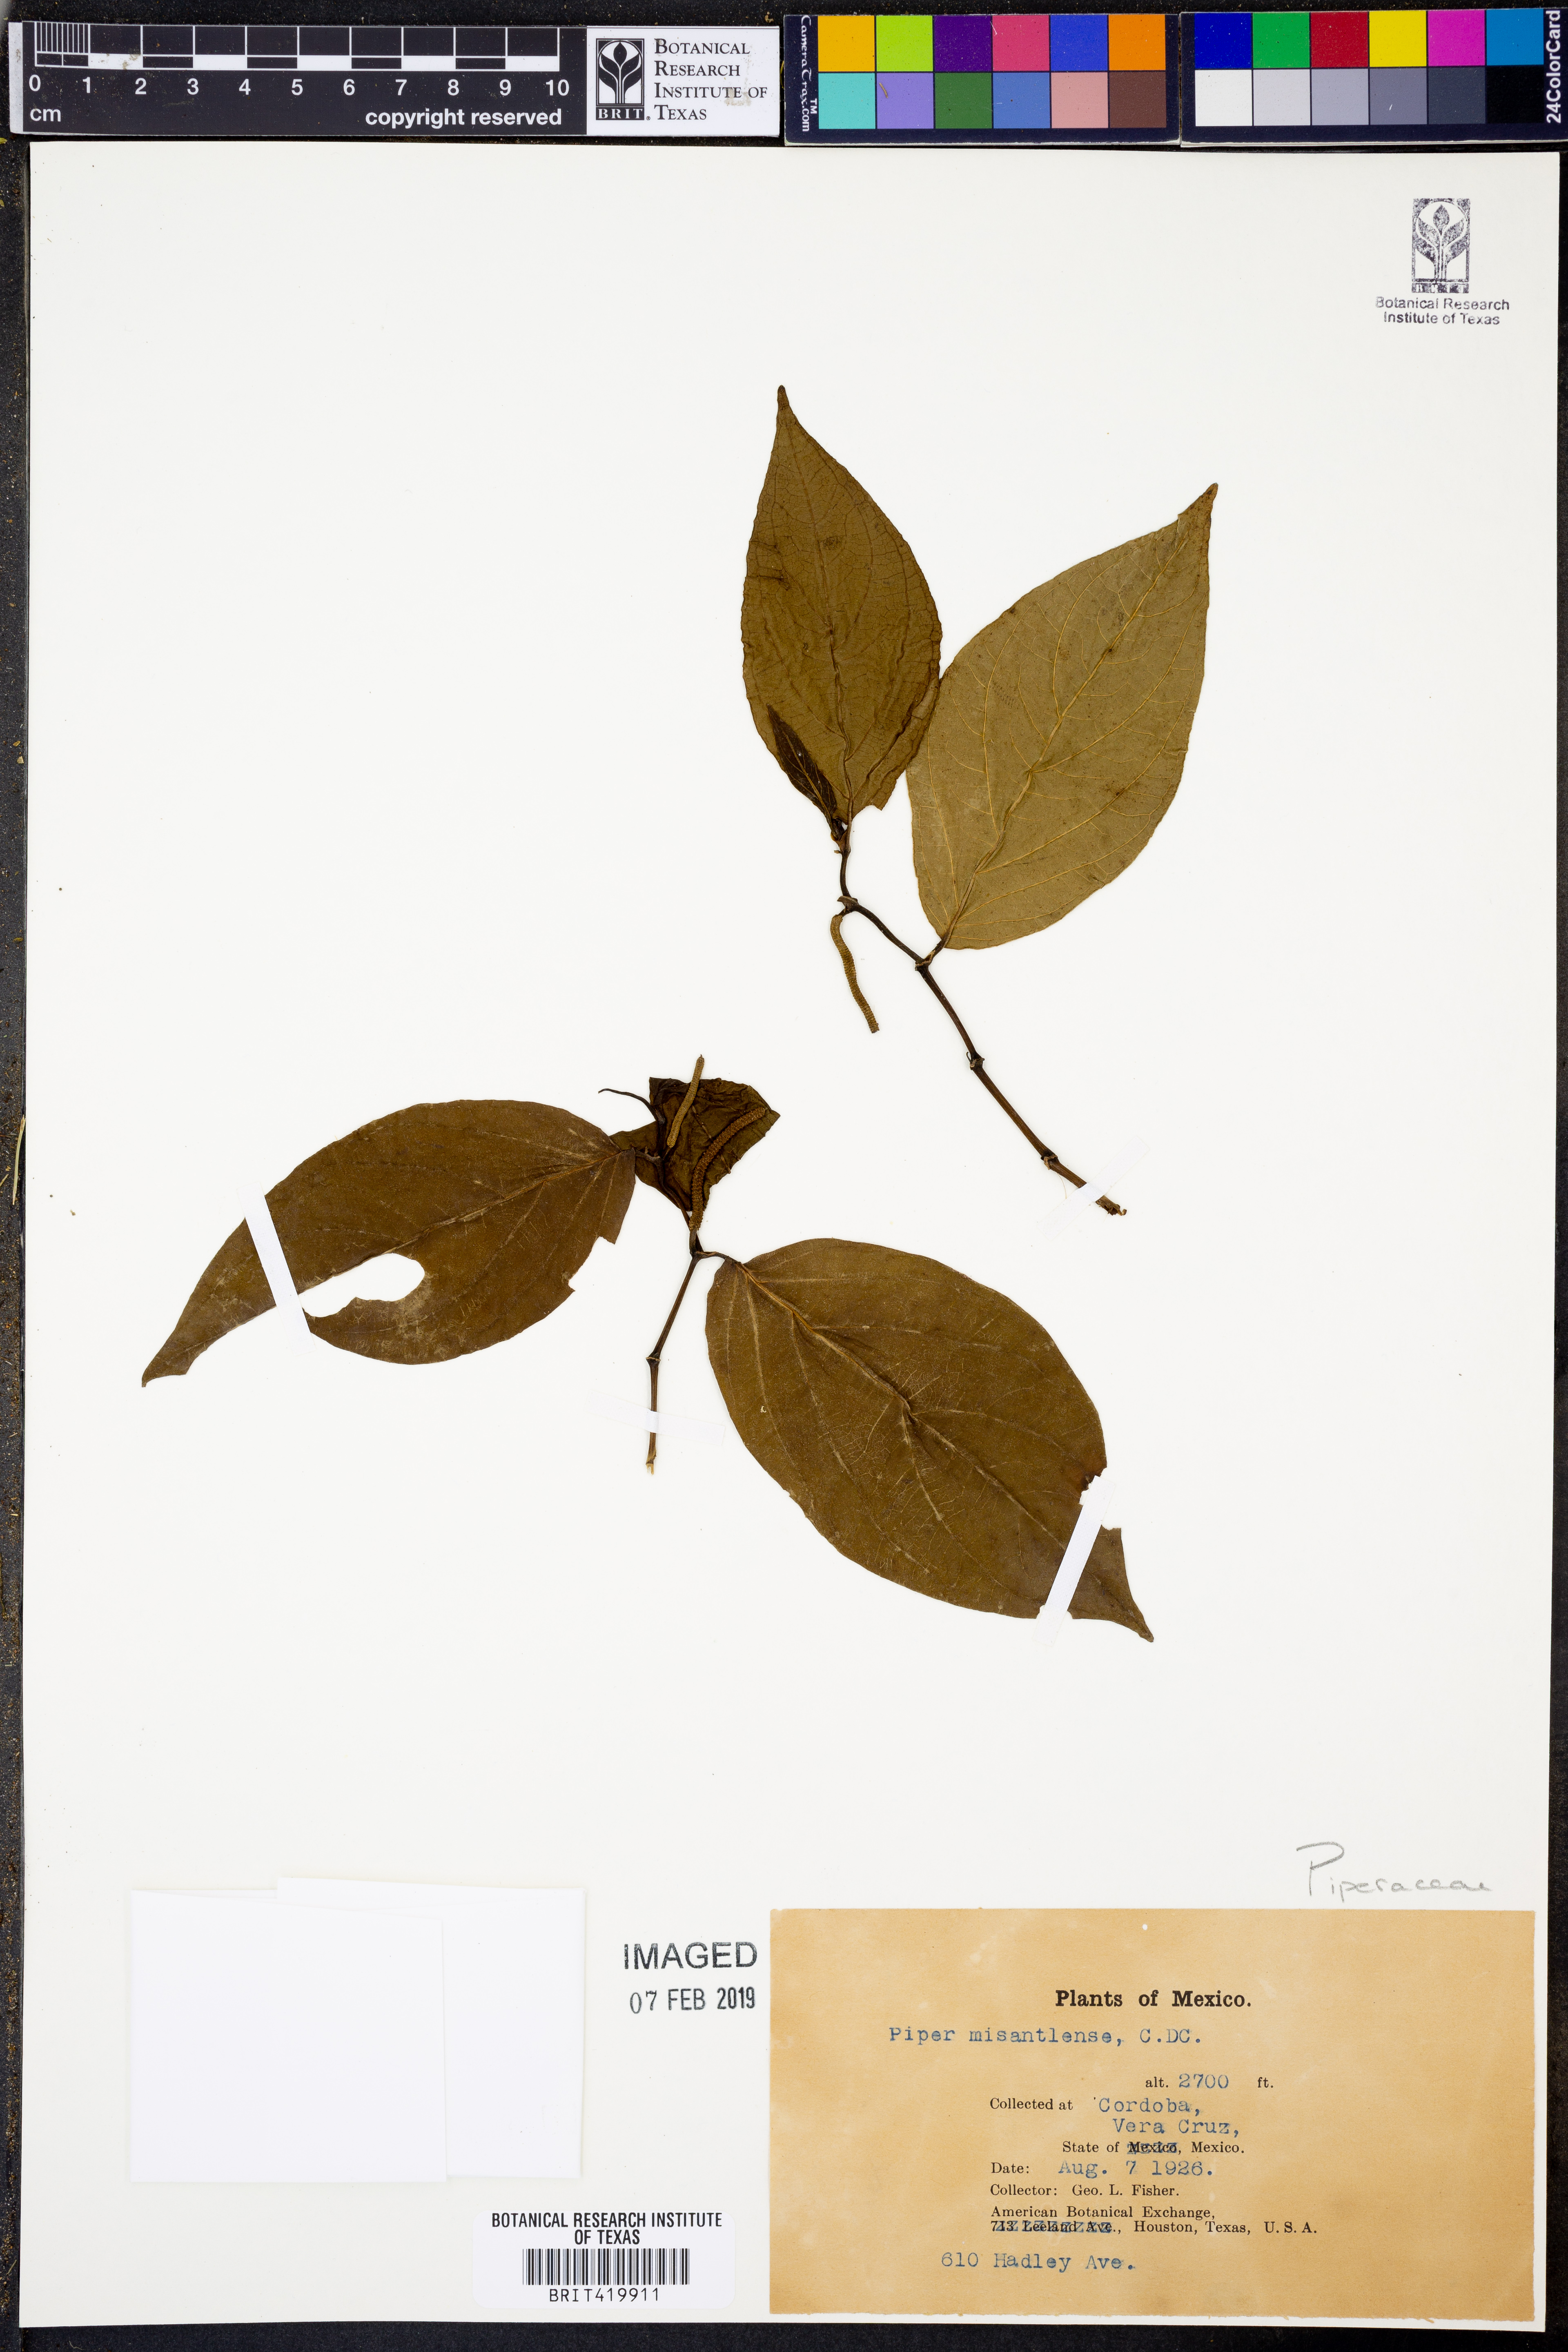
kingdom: Plantae
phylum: Tracheophyta
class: Magnoliopsida
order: Piperales
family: Piperaceae
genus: Piper
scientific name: Piper chamissonis
